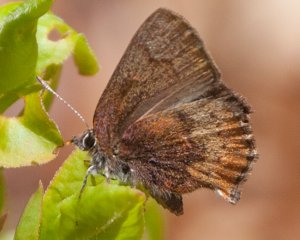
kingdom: Animalia
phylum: Arthropoda
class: Insecta
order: Lepidoptera
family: Lycaenidae
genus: Incisalia
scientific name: Incisalia irioides
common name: Brown Elfin
